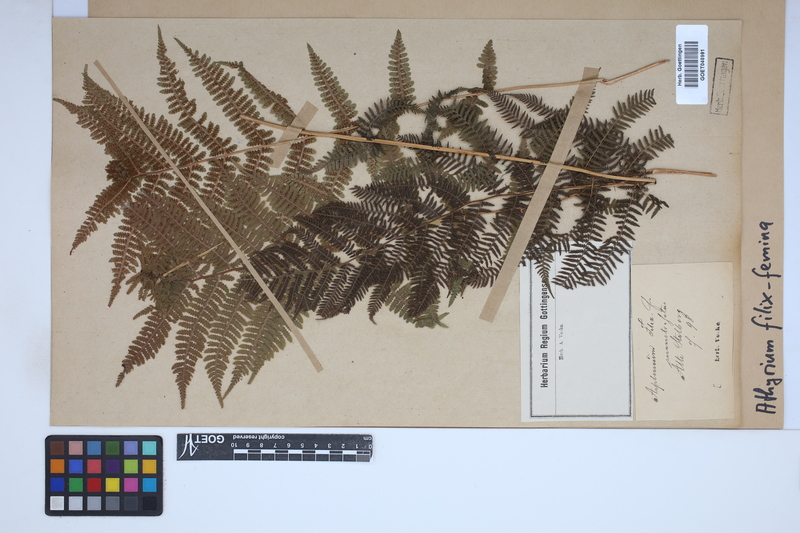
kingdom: Plantae
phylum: Tracheophyta
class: Polypodiopsida
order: Polypodiales
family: Athyriaceae
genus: Athyrium
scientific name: Athyrium filix-femina
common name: Lady fern
